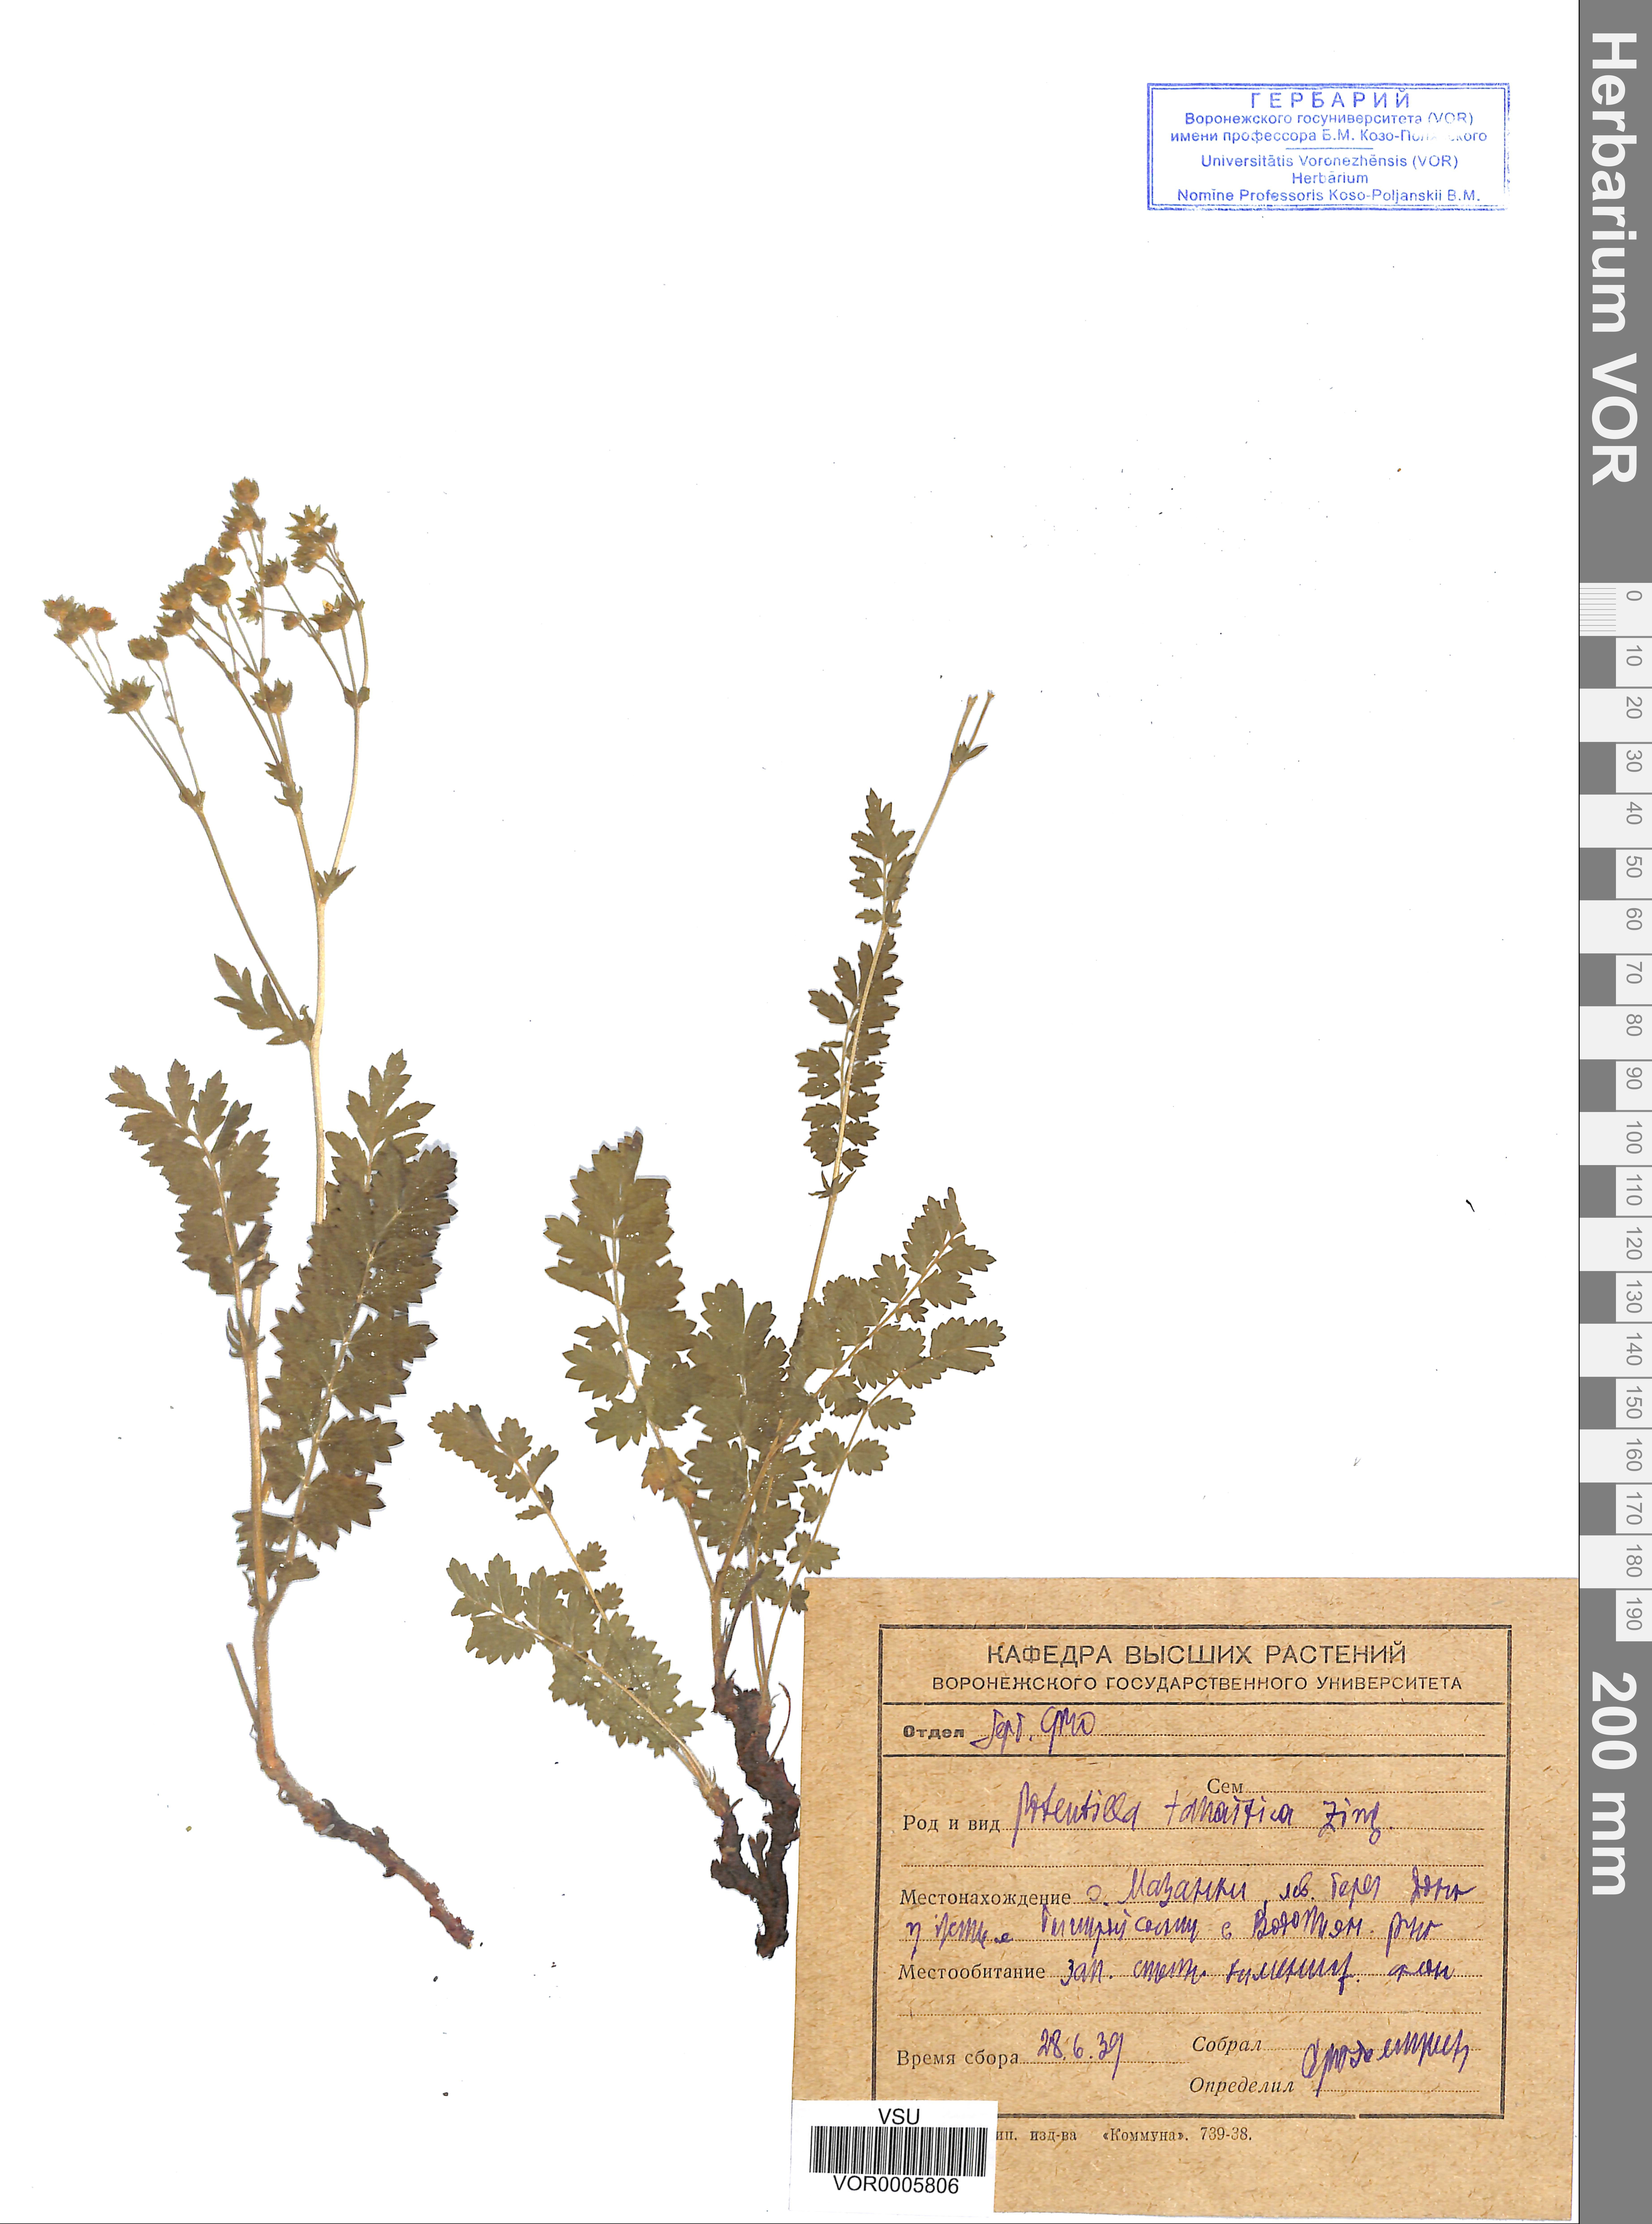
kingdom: Plantae
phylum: Tracheophyta
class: Magnoliopsida
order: Rosales
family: Rosaceae
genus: Potentilla
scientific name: Potentilla tanaitica
